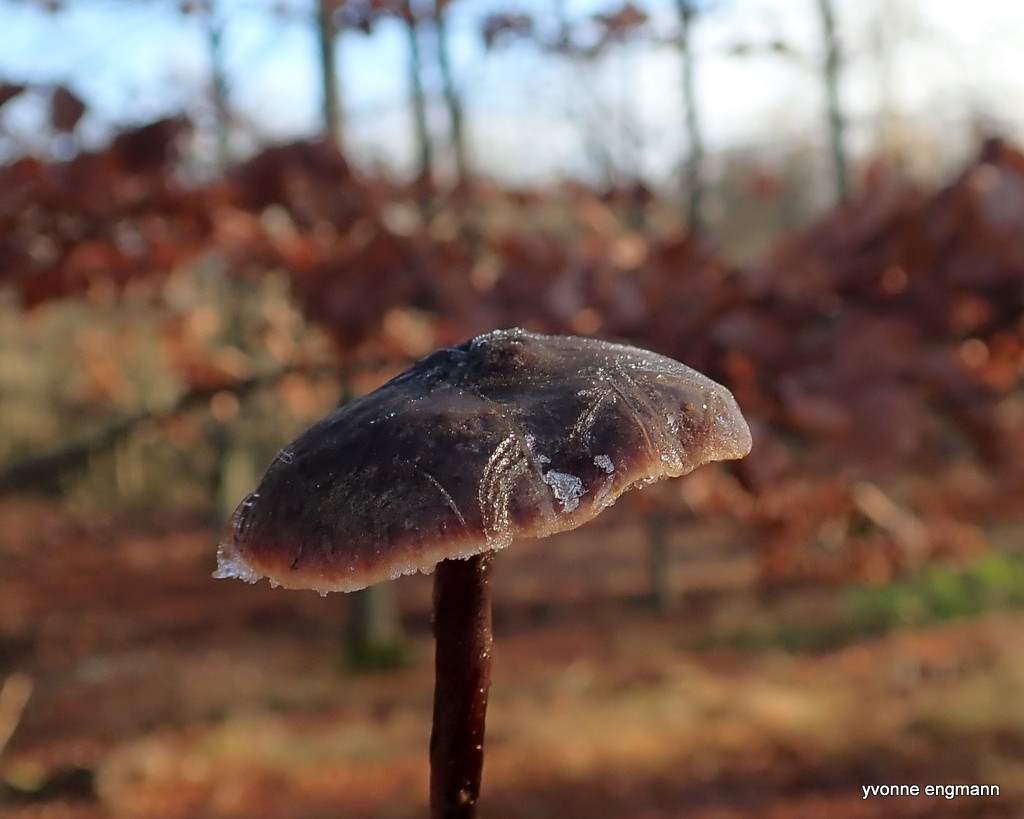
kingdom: Fungi
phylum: Basidiomycota
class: Agaricomycetes
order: Agaricales
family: Macrocystidiaceae
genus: Macrocystidia
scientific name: Macrocystidia cucumis
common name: agurkehat
